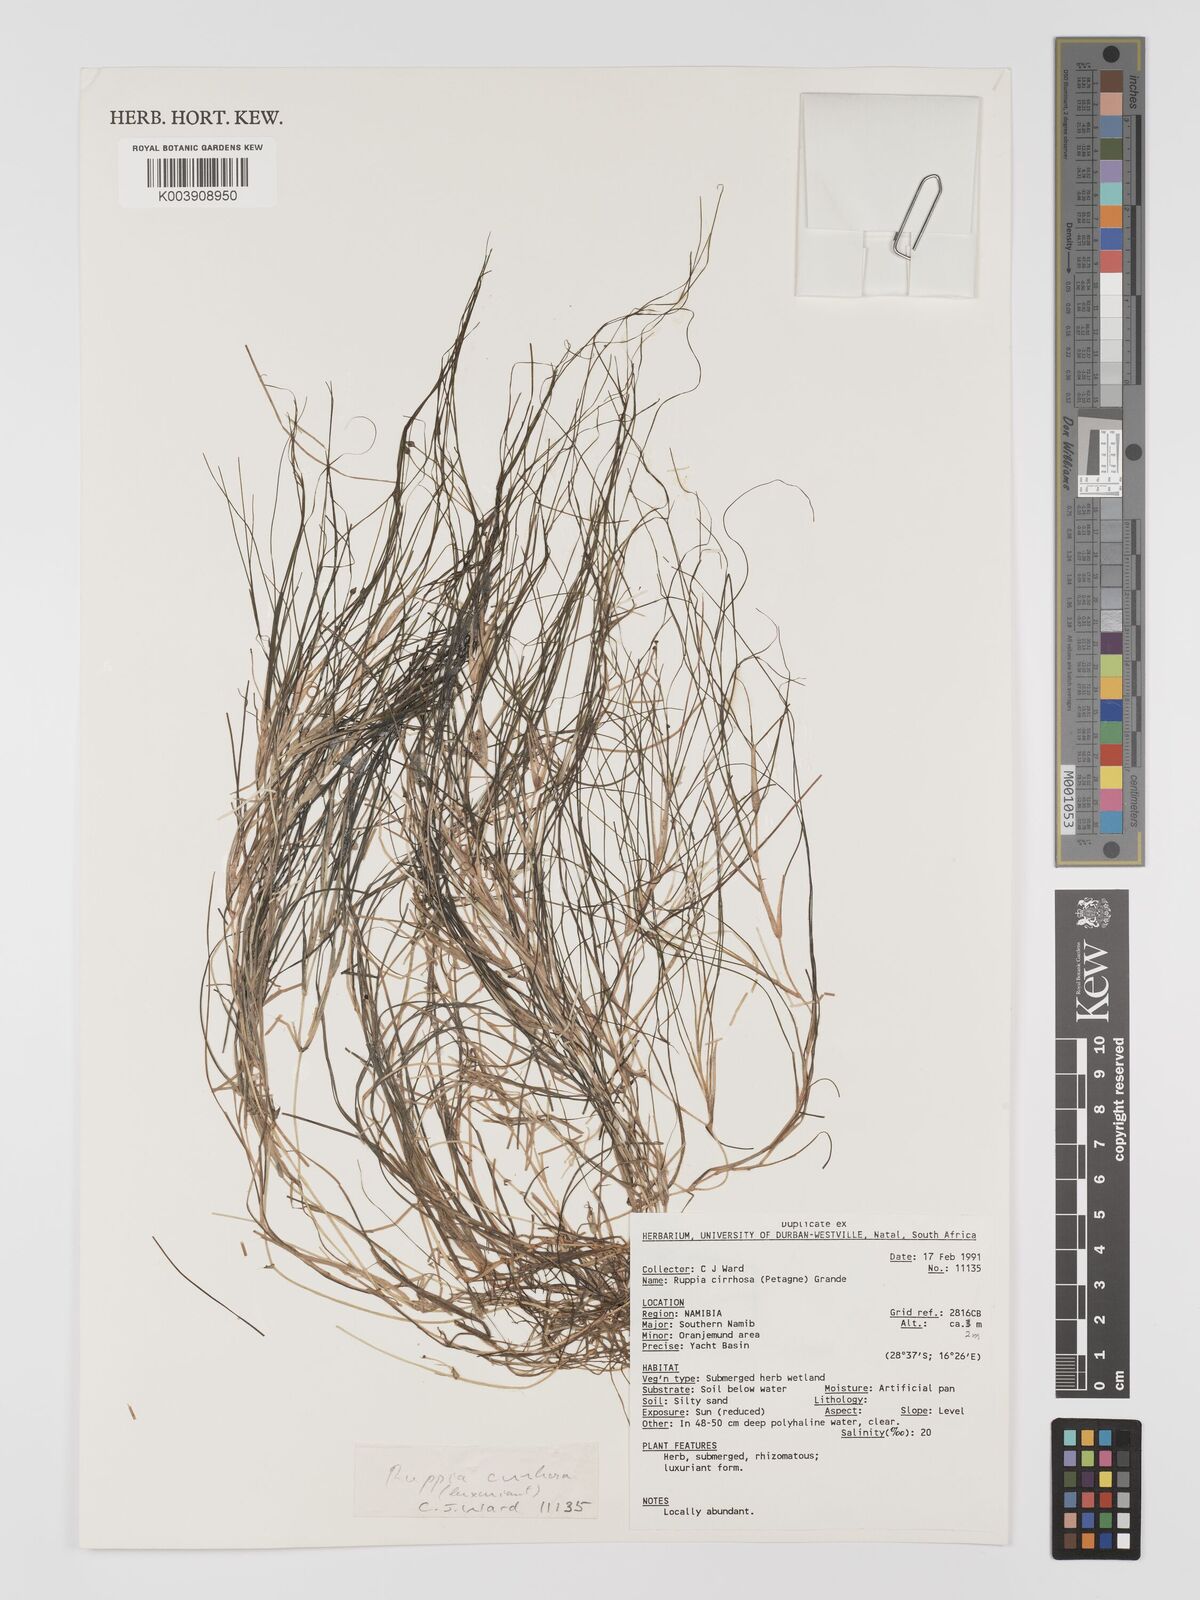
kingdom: Plantae
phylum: Tracheophyta
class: Liliopsida
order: Alismatales
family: Ruppiaceae
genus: Ruppia
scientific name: Ruppia cirrhosa
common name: Spiral tasselweed
